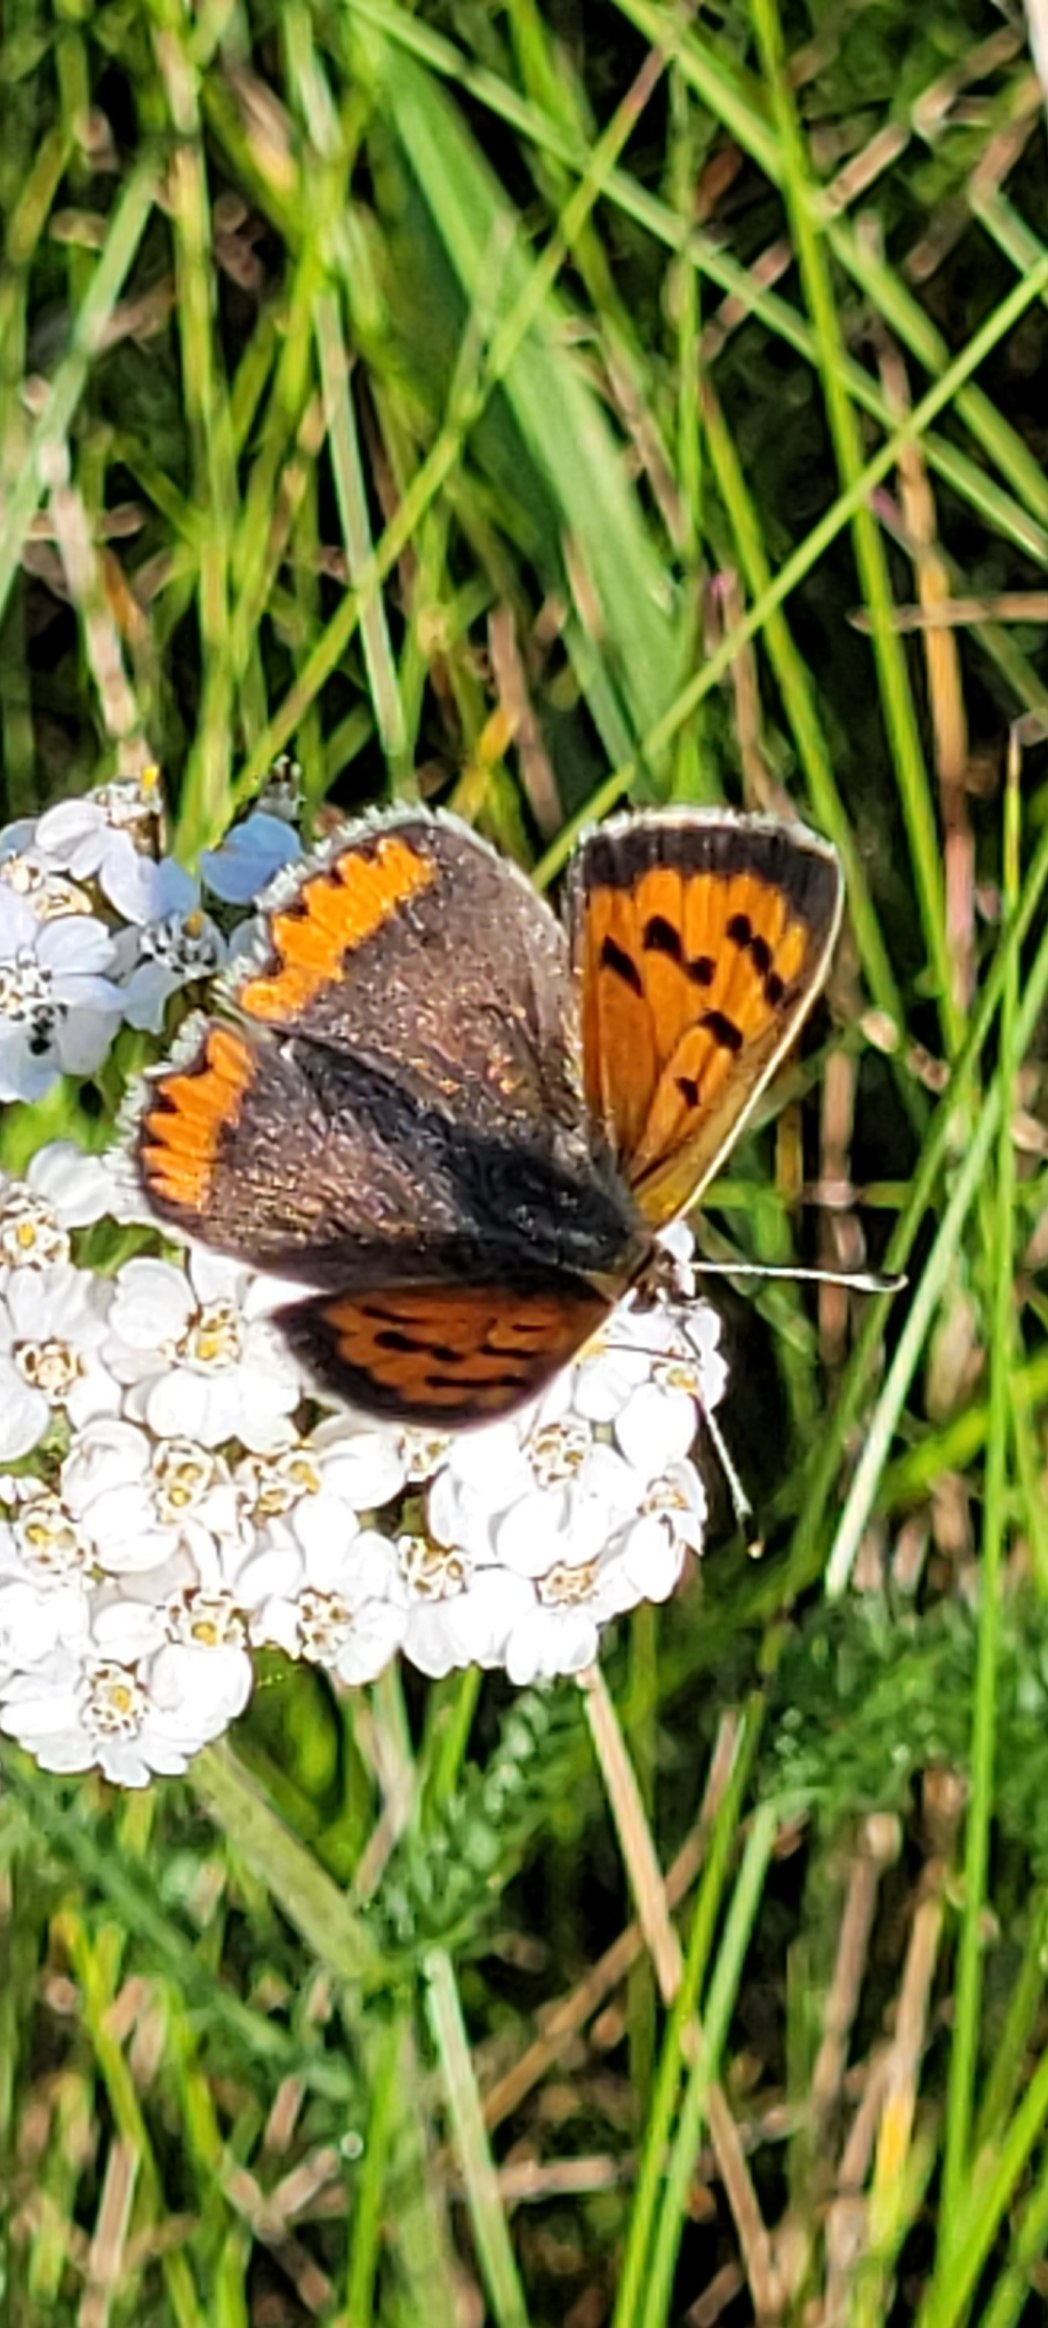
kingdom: Animalia
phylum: Arthropoda
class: Insecta
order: Lepidoptera
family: Lycaenidae
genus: Lycaena
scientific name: Lycaena phlaeas
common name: Lille ildfugl
